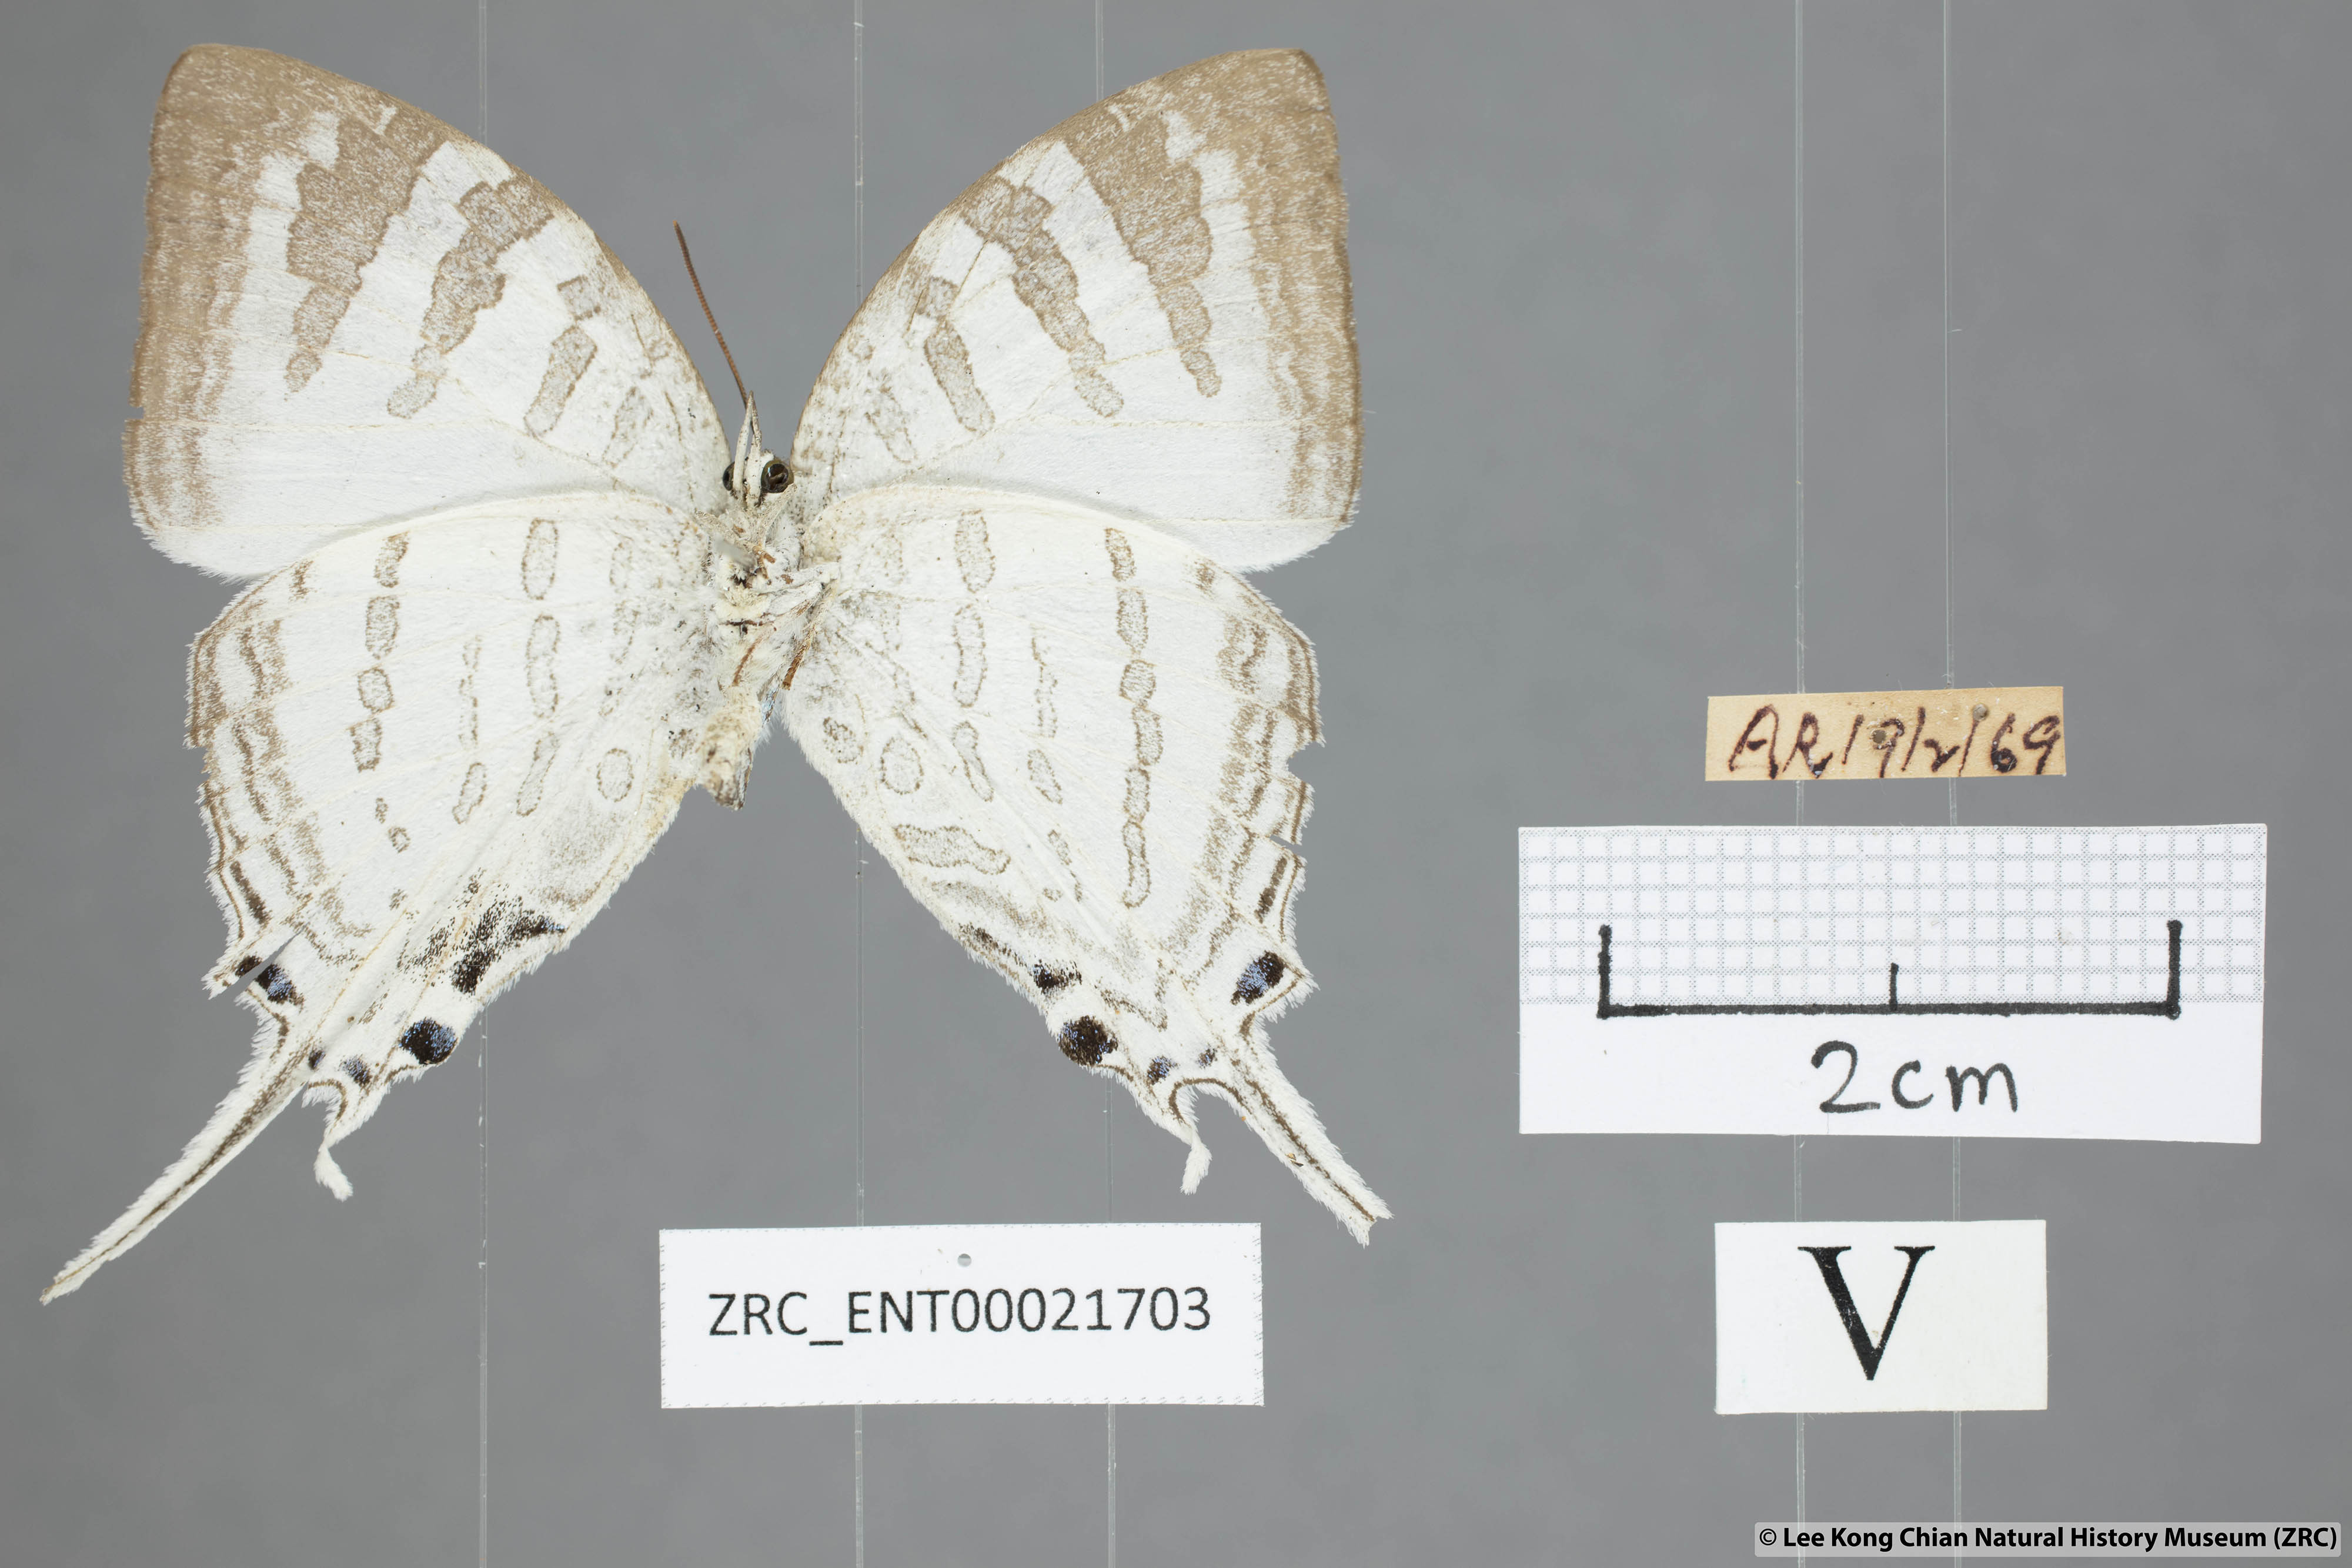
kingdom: Animalia
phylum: Arthropoda
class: Insecta
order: Lepidoptera
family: Lycaenidae
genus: Neomyrina
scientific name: Neomyrina nivea
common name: White imperial butterfly
